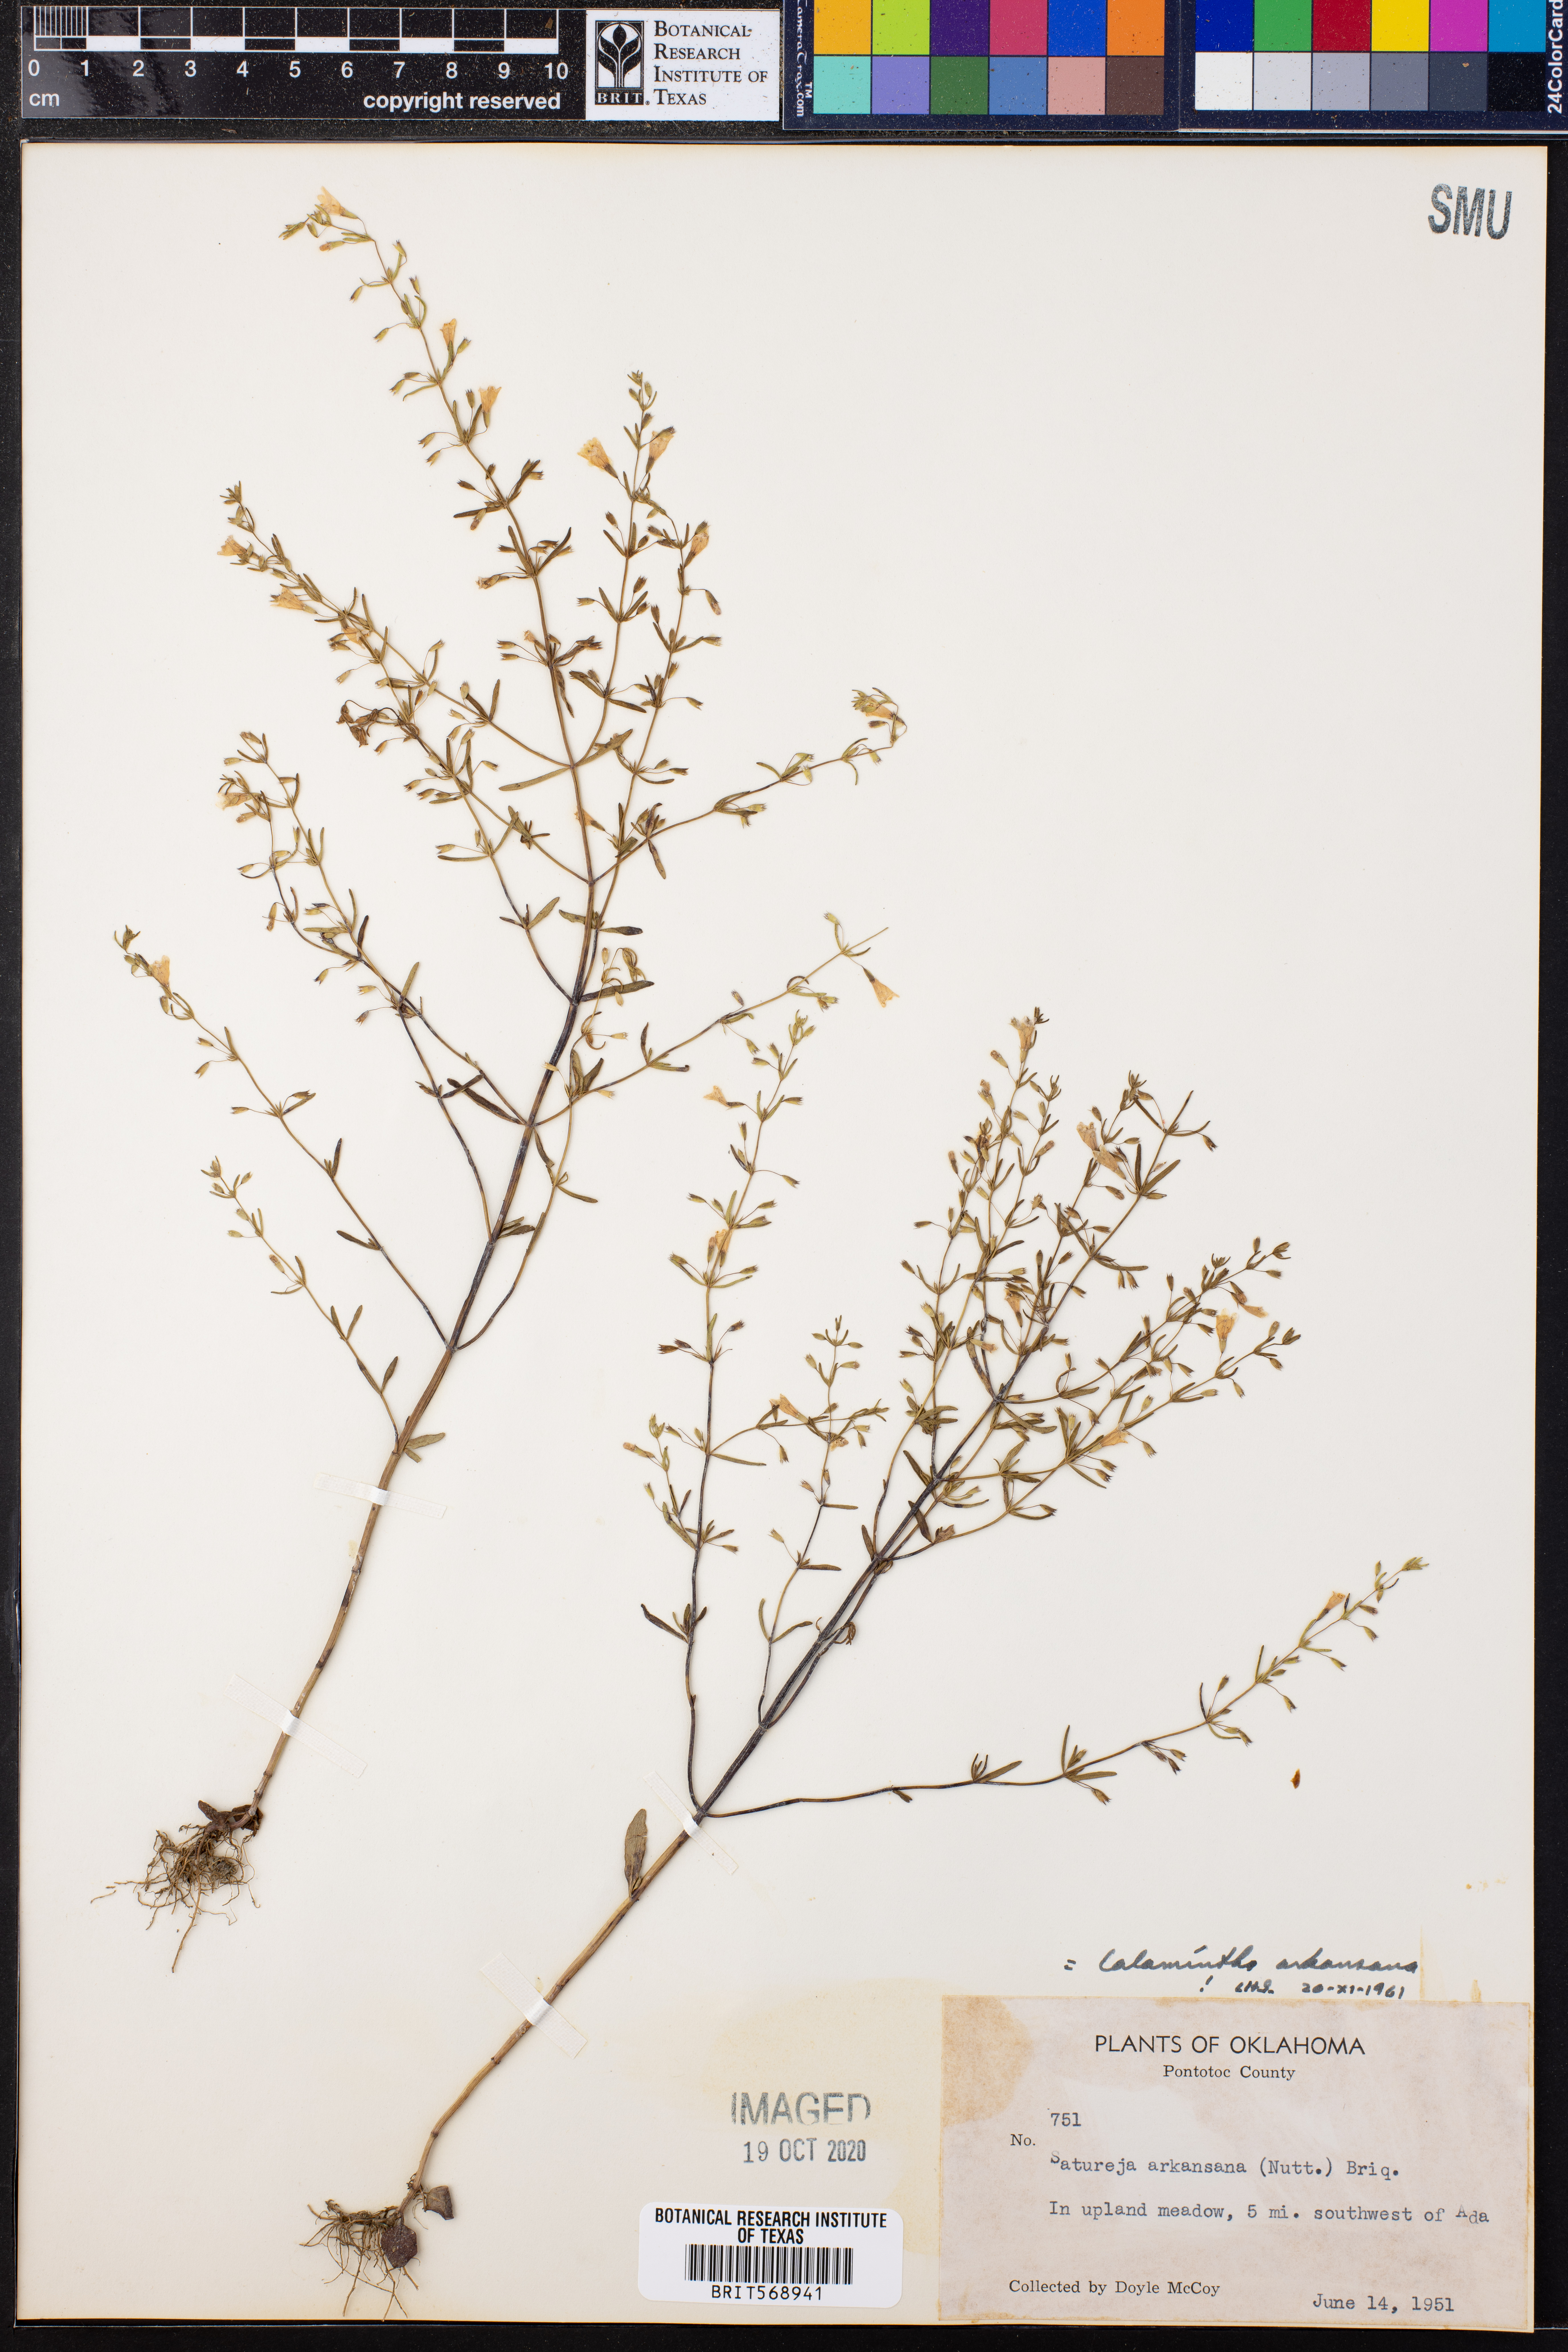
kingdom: Plantae
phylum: Tracheophyta
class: Magnoliopsida
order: Lamiales
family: Lamiaceae
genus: Clinopodium
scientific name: Clinopodium arkansanum
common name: Limestone calamint
